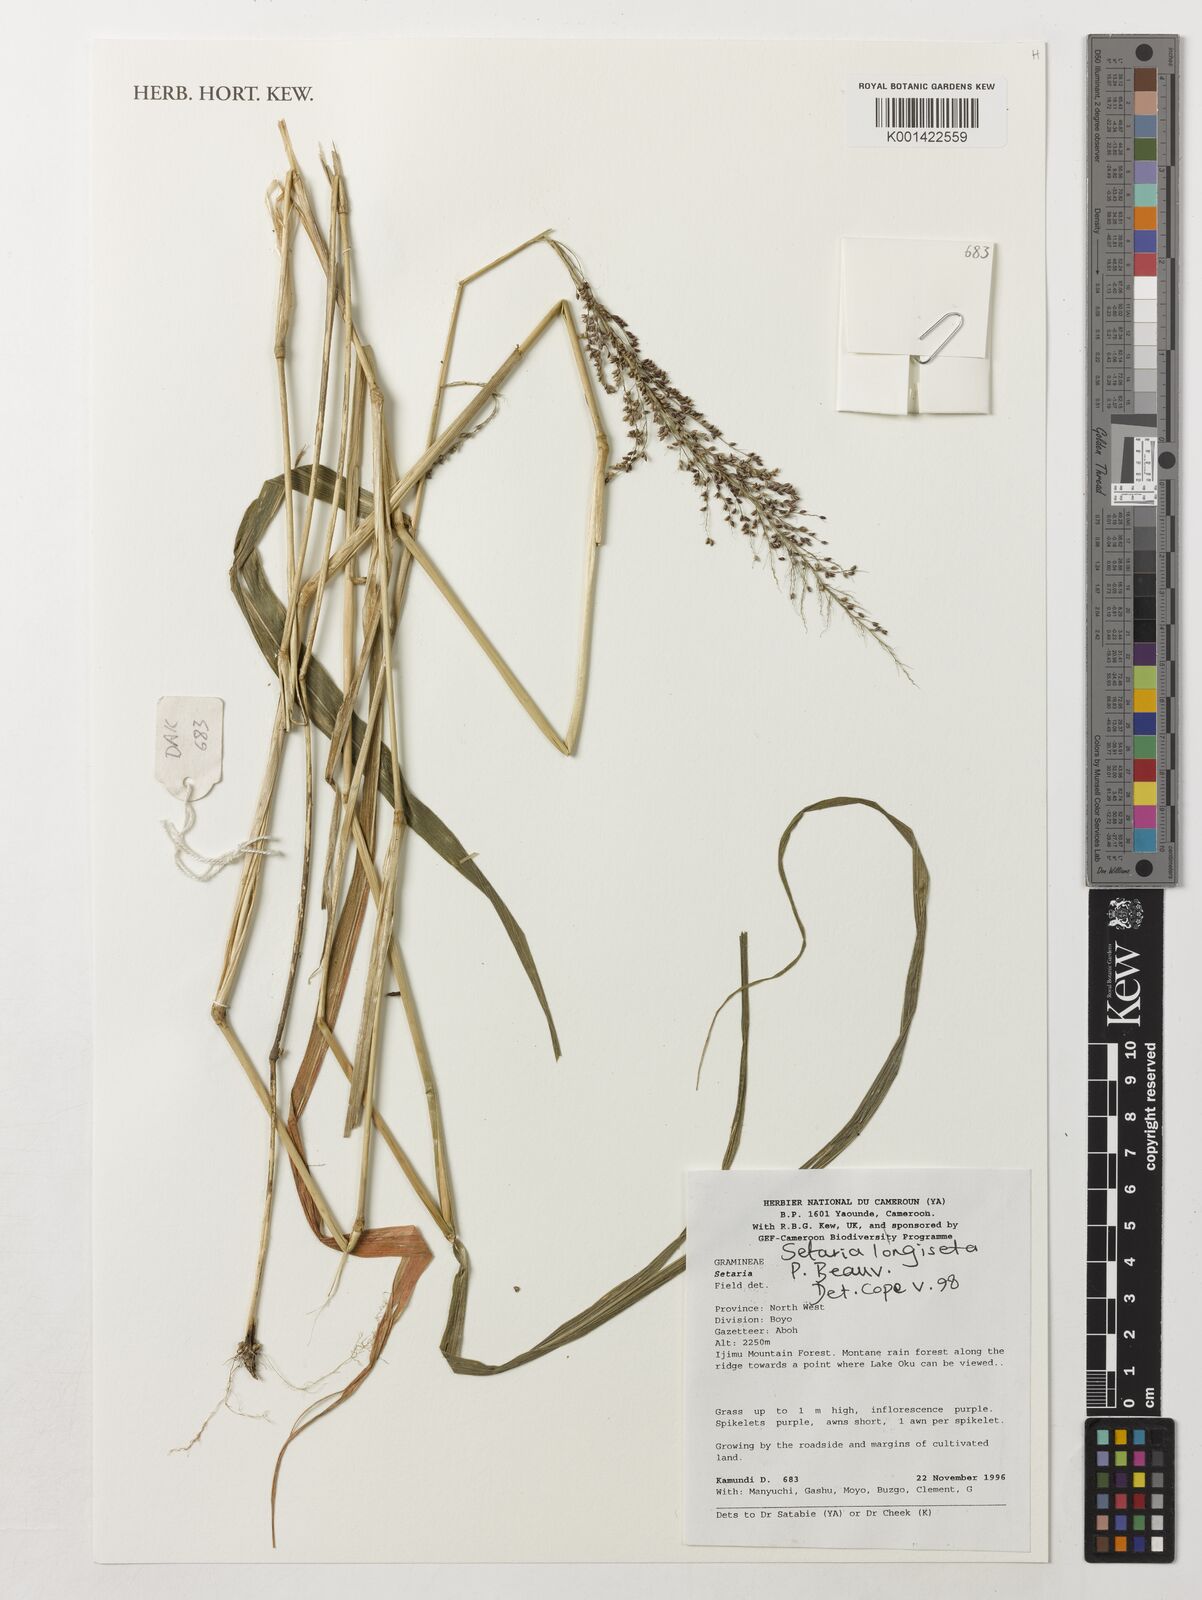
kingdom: Plantae
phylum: Tracheophyta
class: Liliopsida
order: Poales
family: Poaceae
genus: Setaria
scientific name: Setaria longiseta
